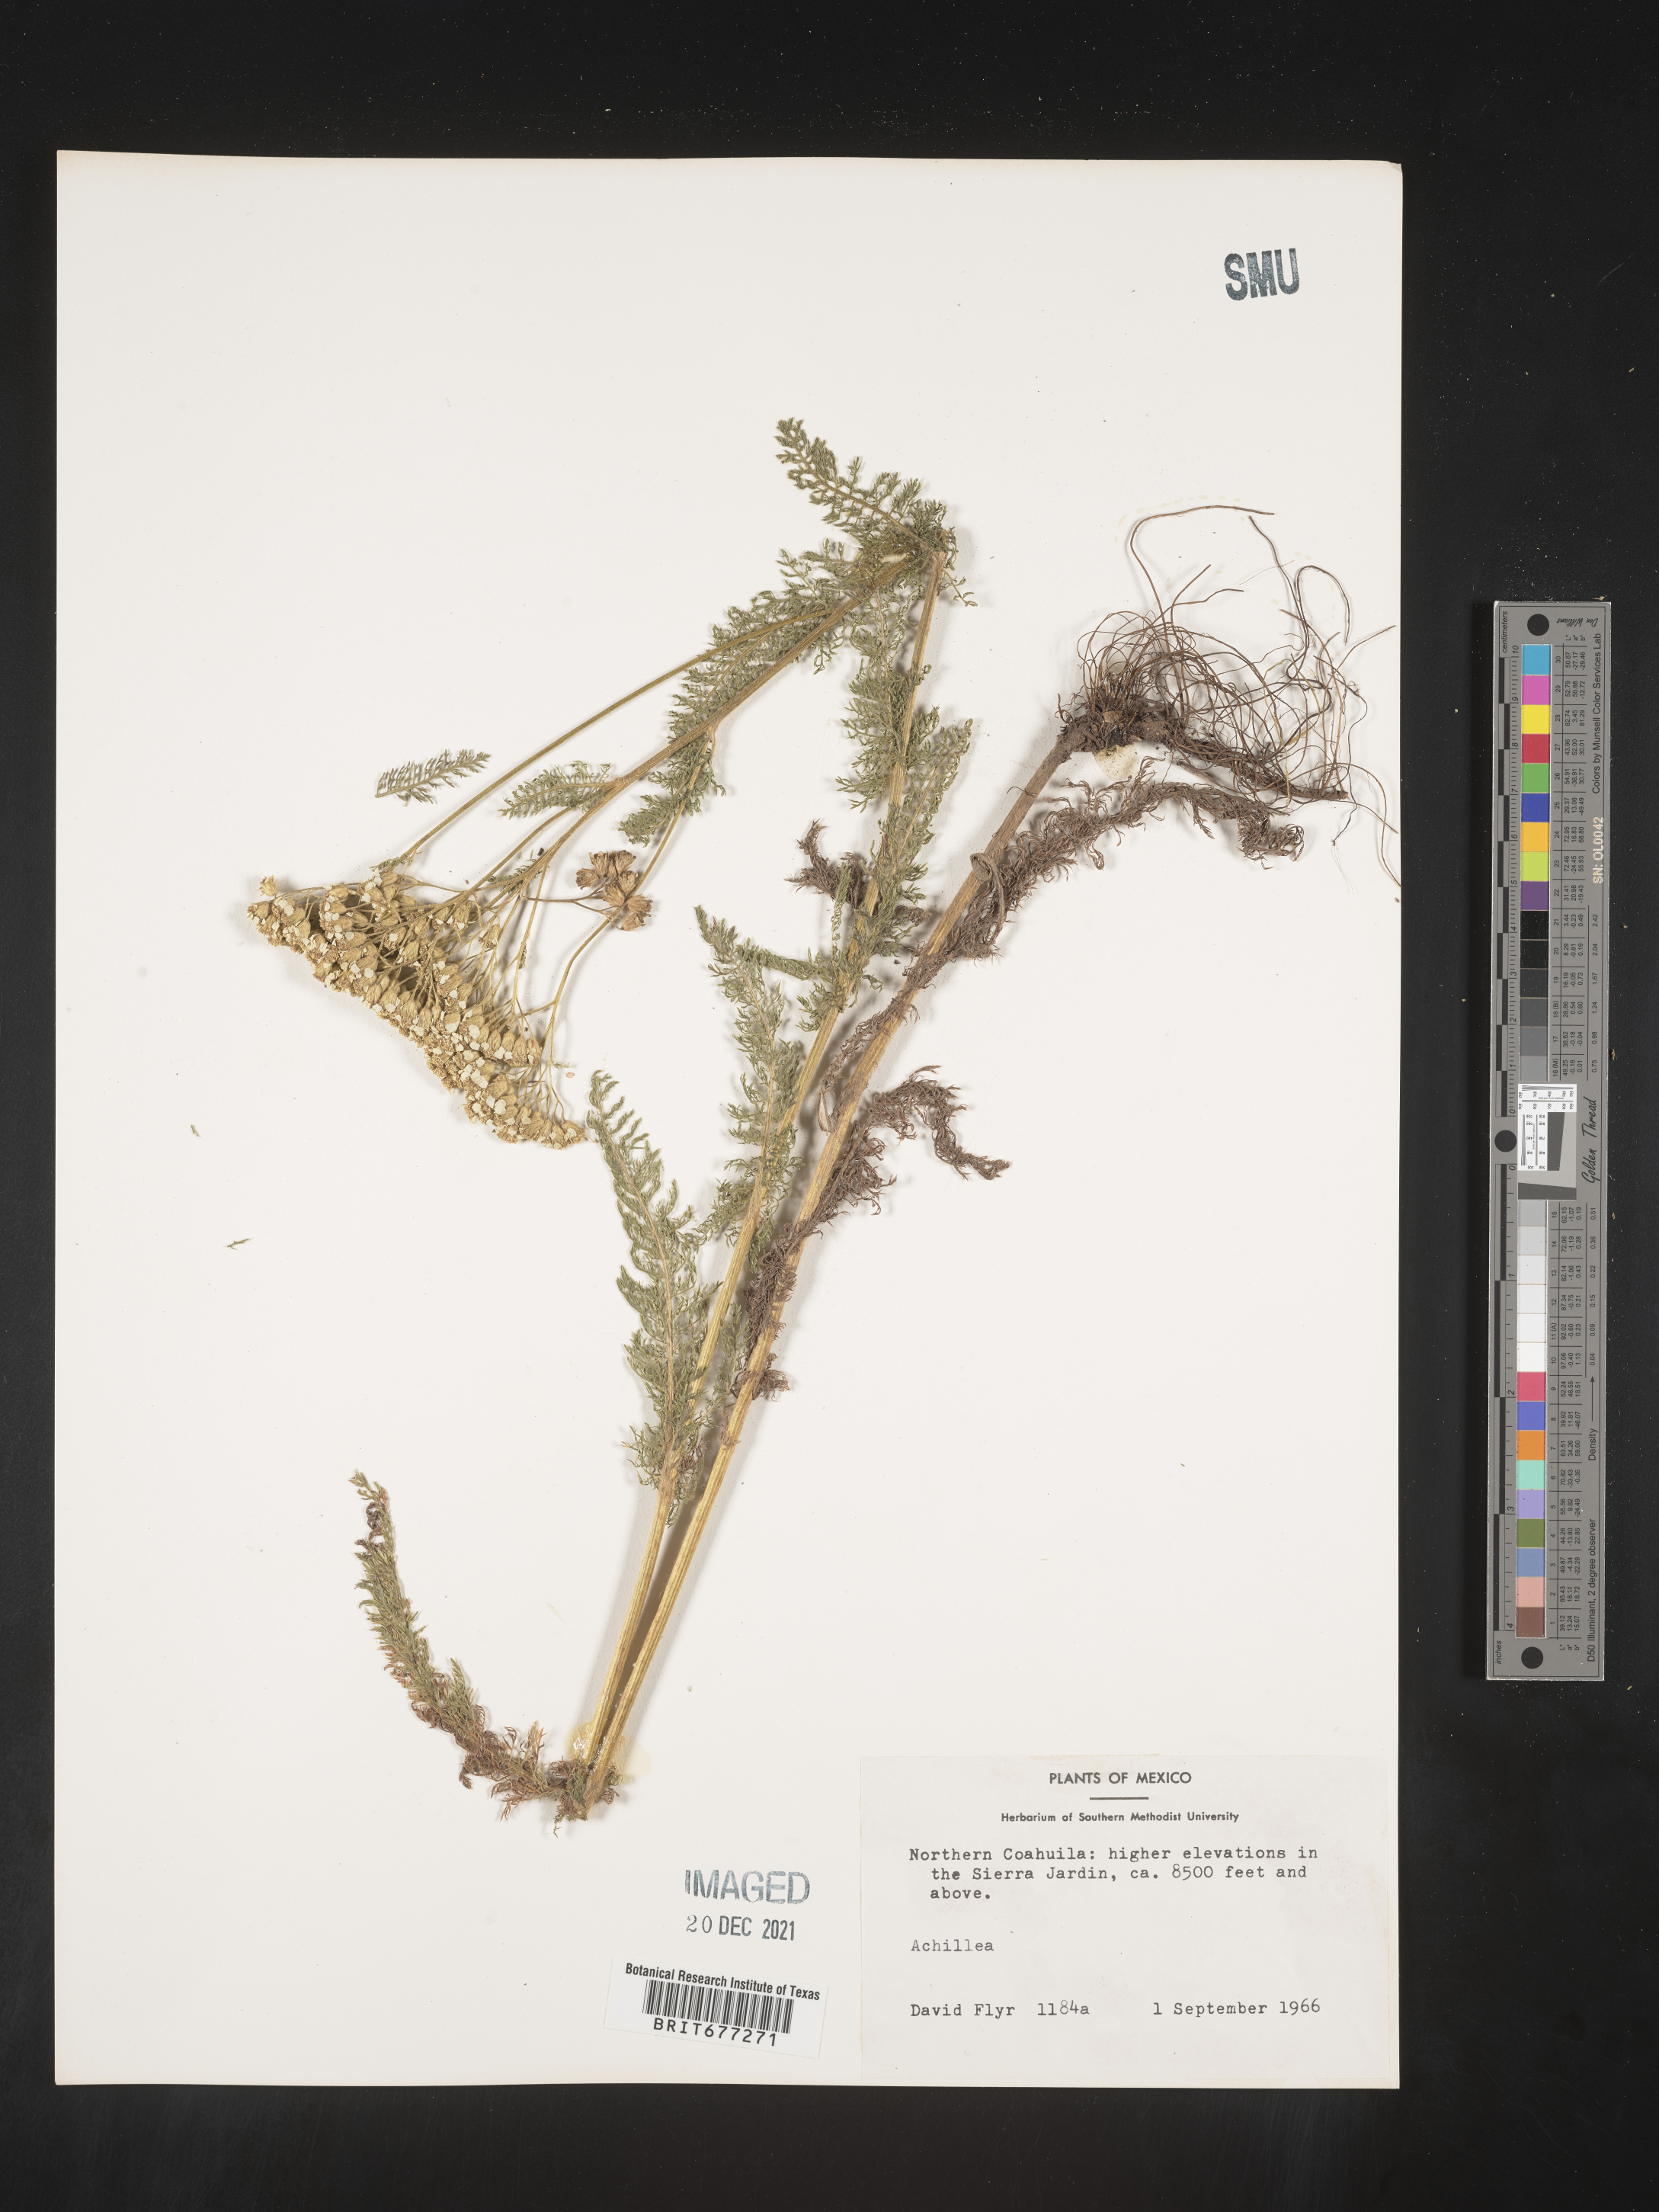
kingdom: Plantae
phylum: Tracheophyta
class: Magnoliopsida
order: Asterales
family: Asteraceae
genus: Achillea
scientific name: Achillea
